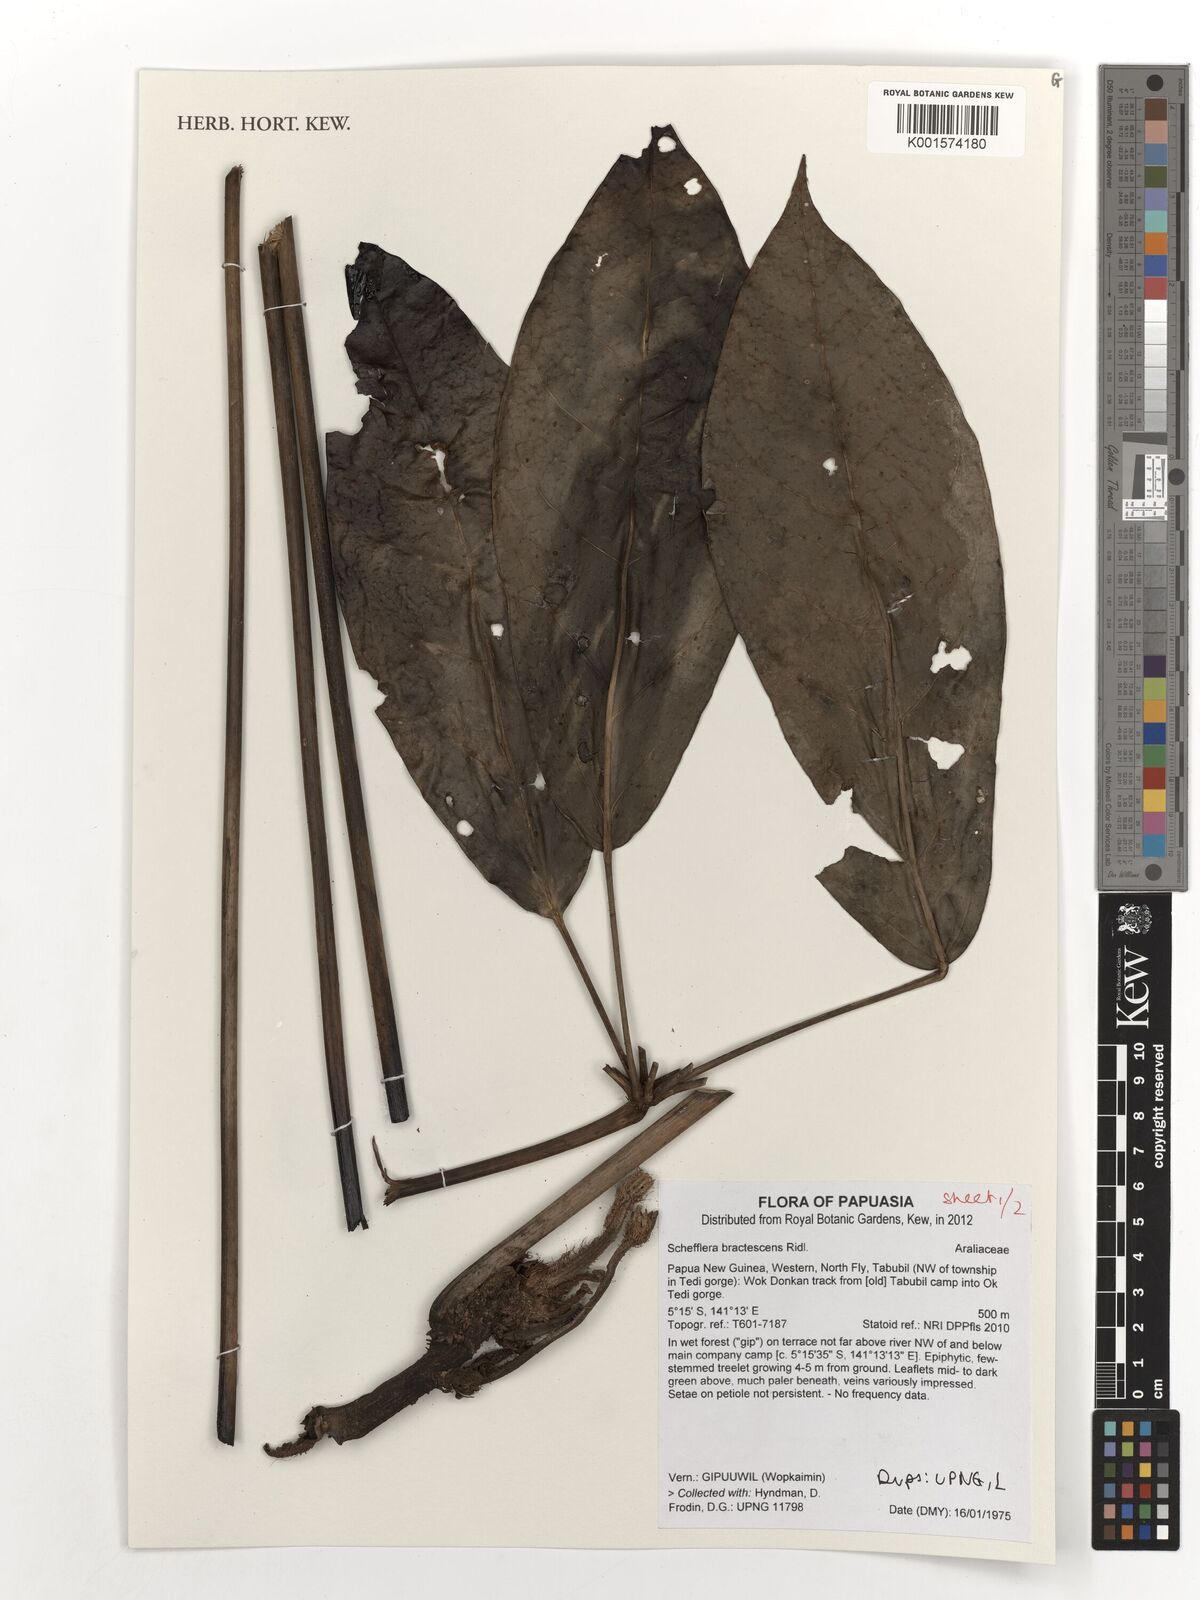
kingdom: Plantae
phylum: Tracheophyta
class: Magnoliopsida
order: Apiales
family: Araliaceae
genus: Heptapleurum
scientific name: Heptapleurum bractescens
